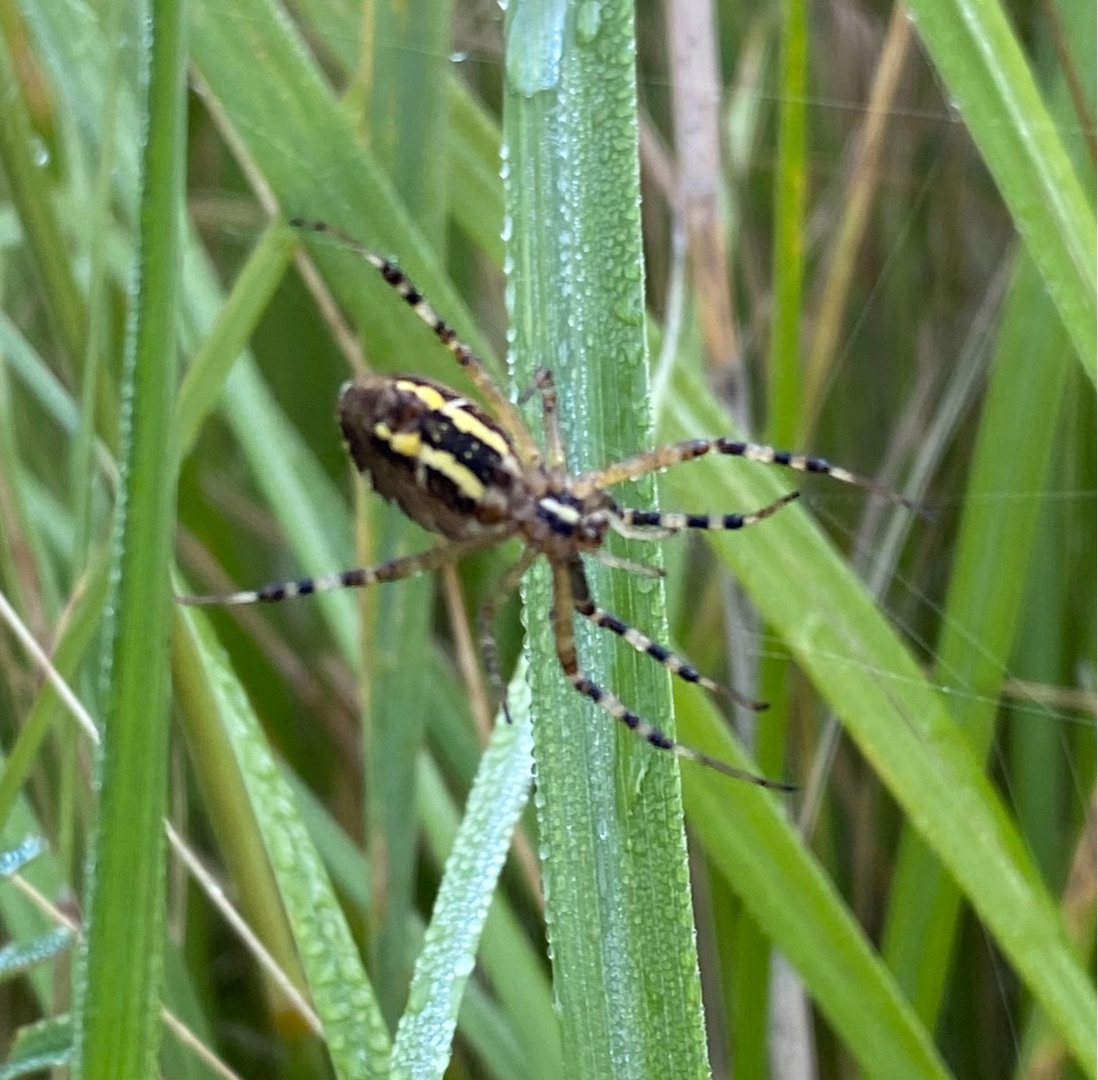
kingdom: Animalia
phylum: Arthropoda
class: Arachnida
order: Araneae
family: Araneidae
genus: Argiope
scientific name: Argiope bruennichi
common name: Hvepseedderkop
